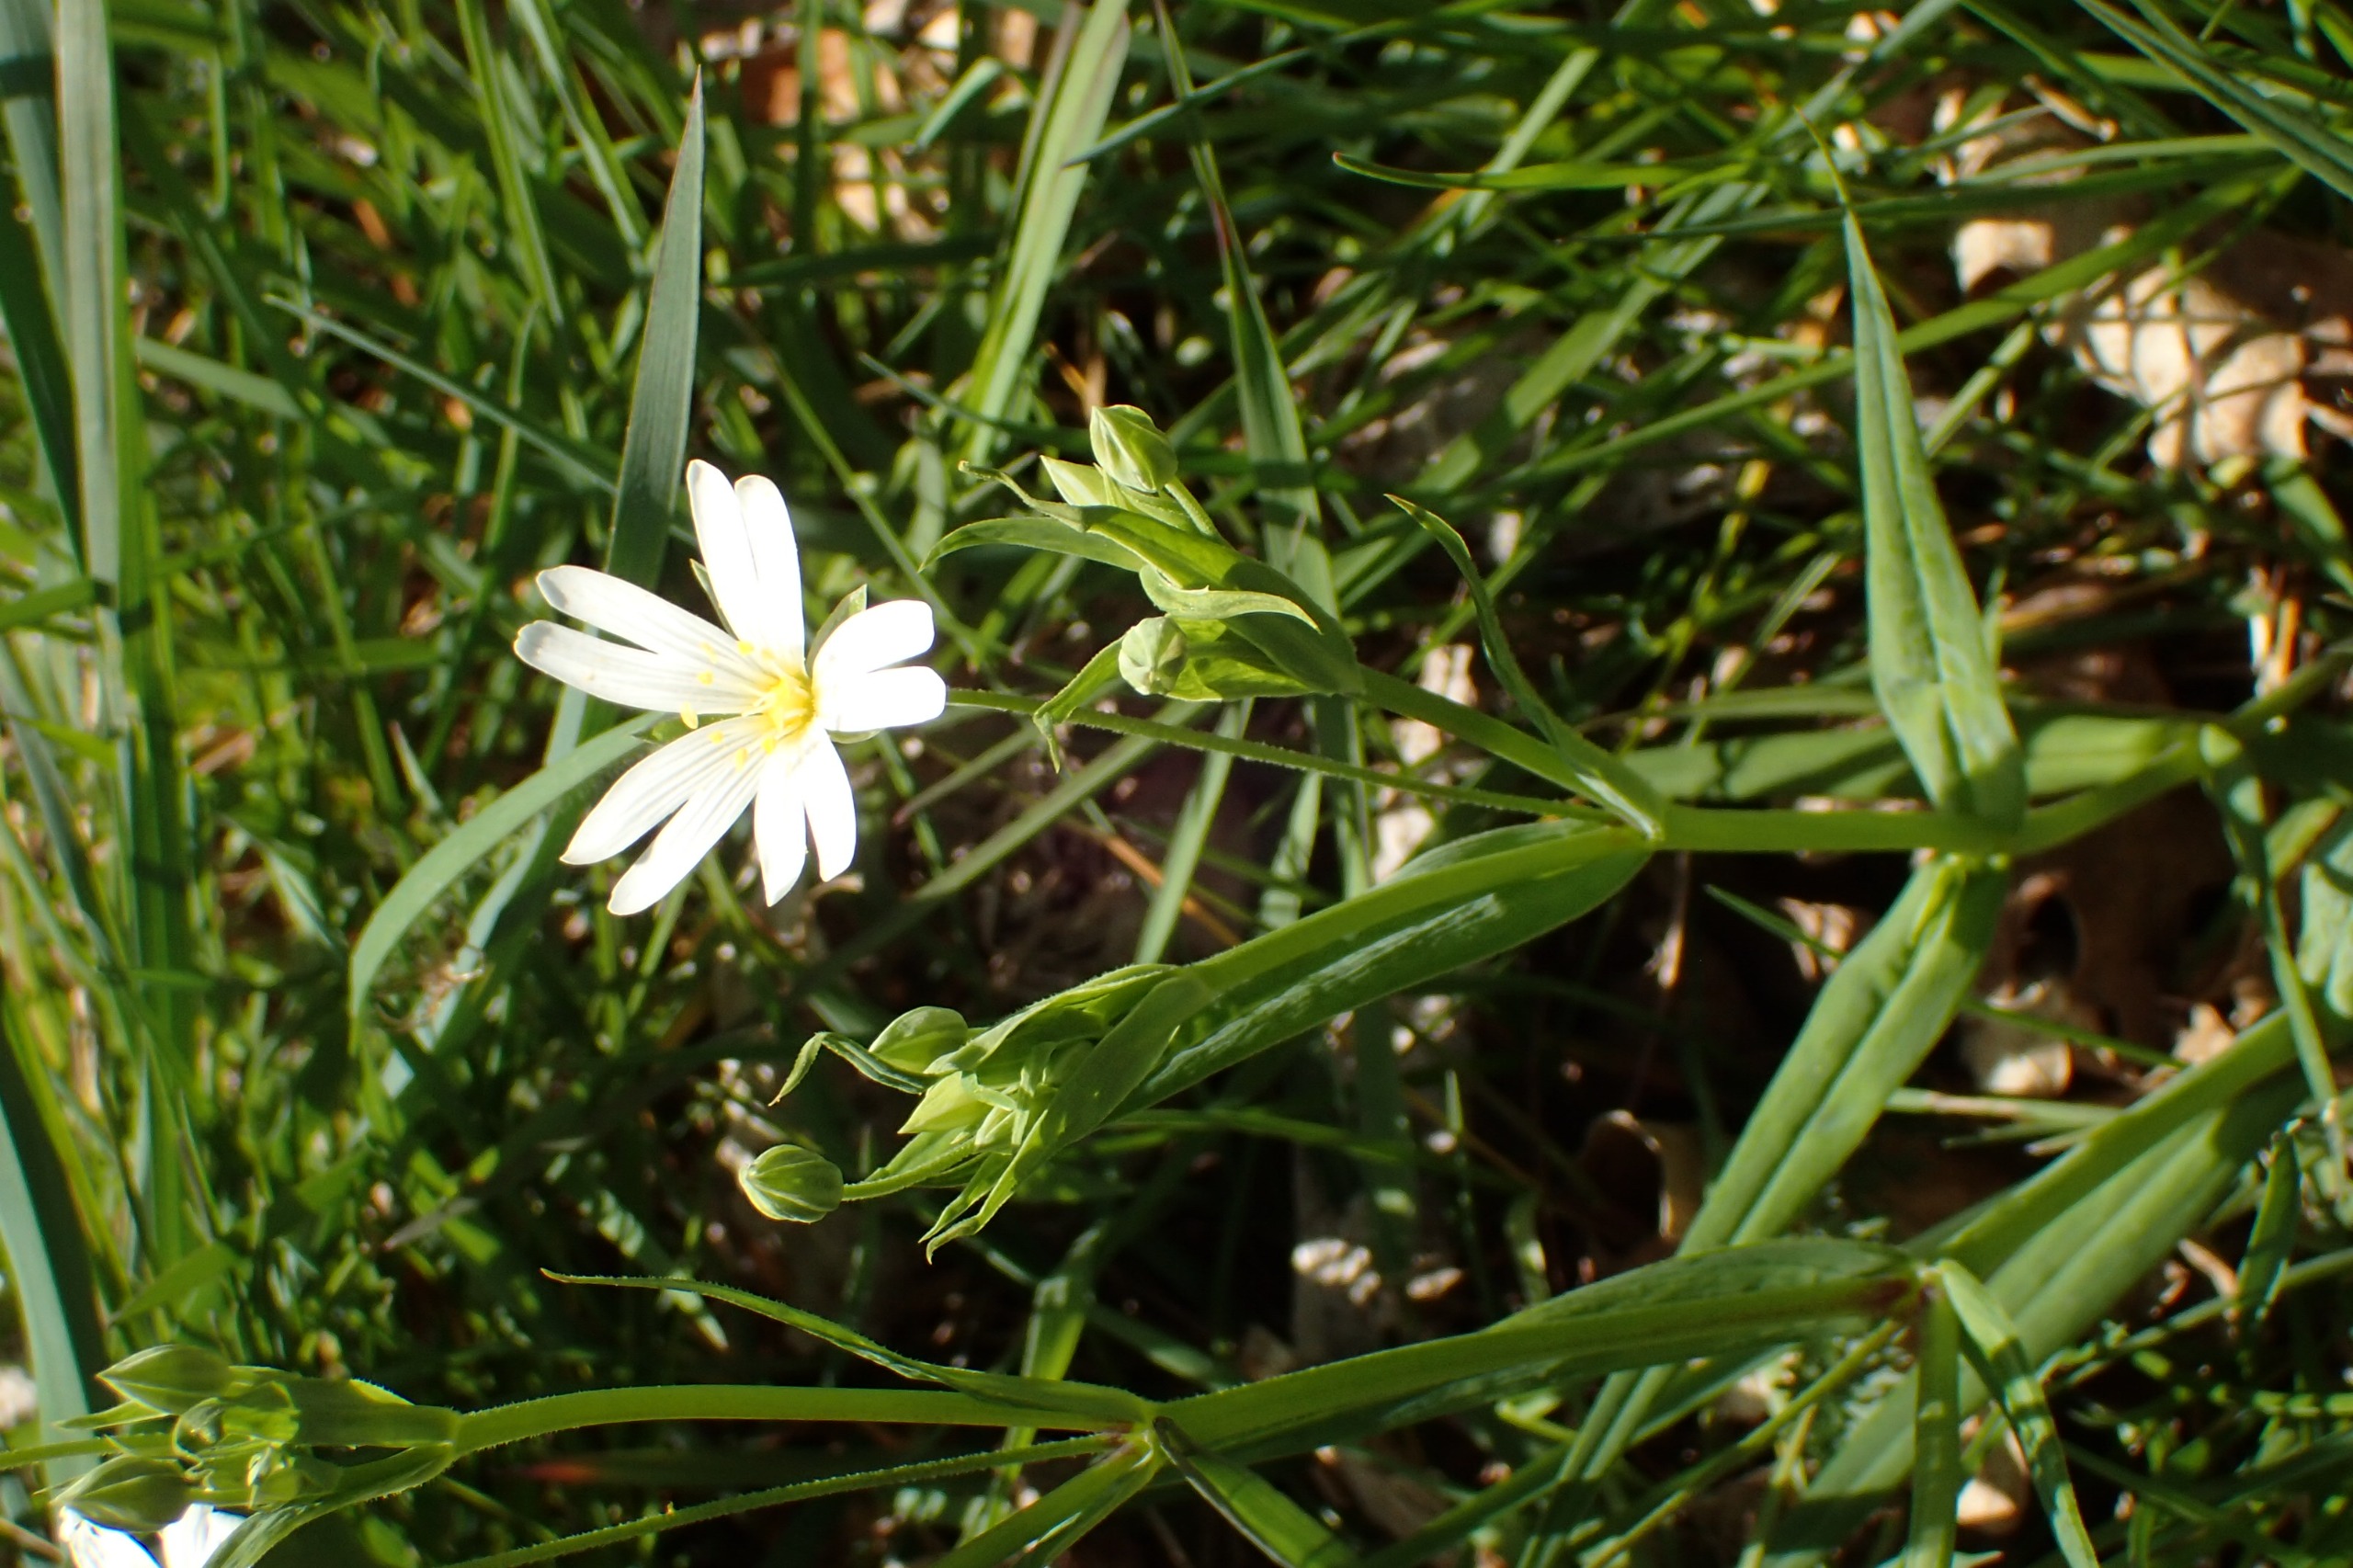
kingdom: Plantae
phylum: Tracheophyta
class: Magnoliopsida
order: Caryophyllales
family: Caryophyllaceae
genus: Rabelera
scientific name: Rabelera holostea
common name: Stor fladstjerne
